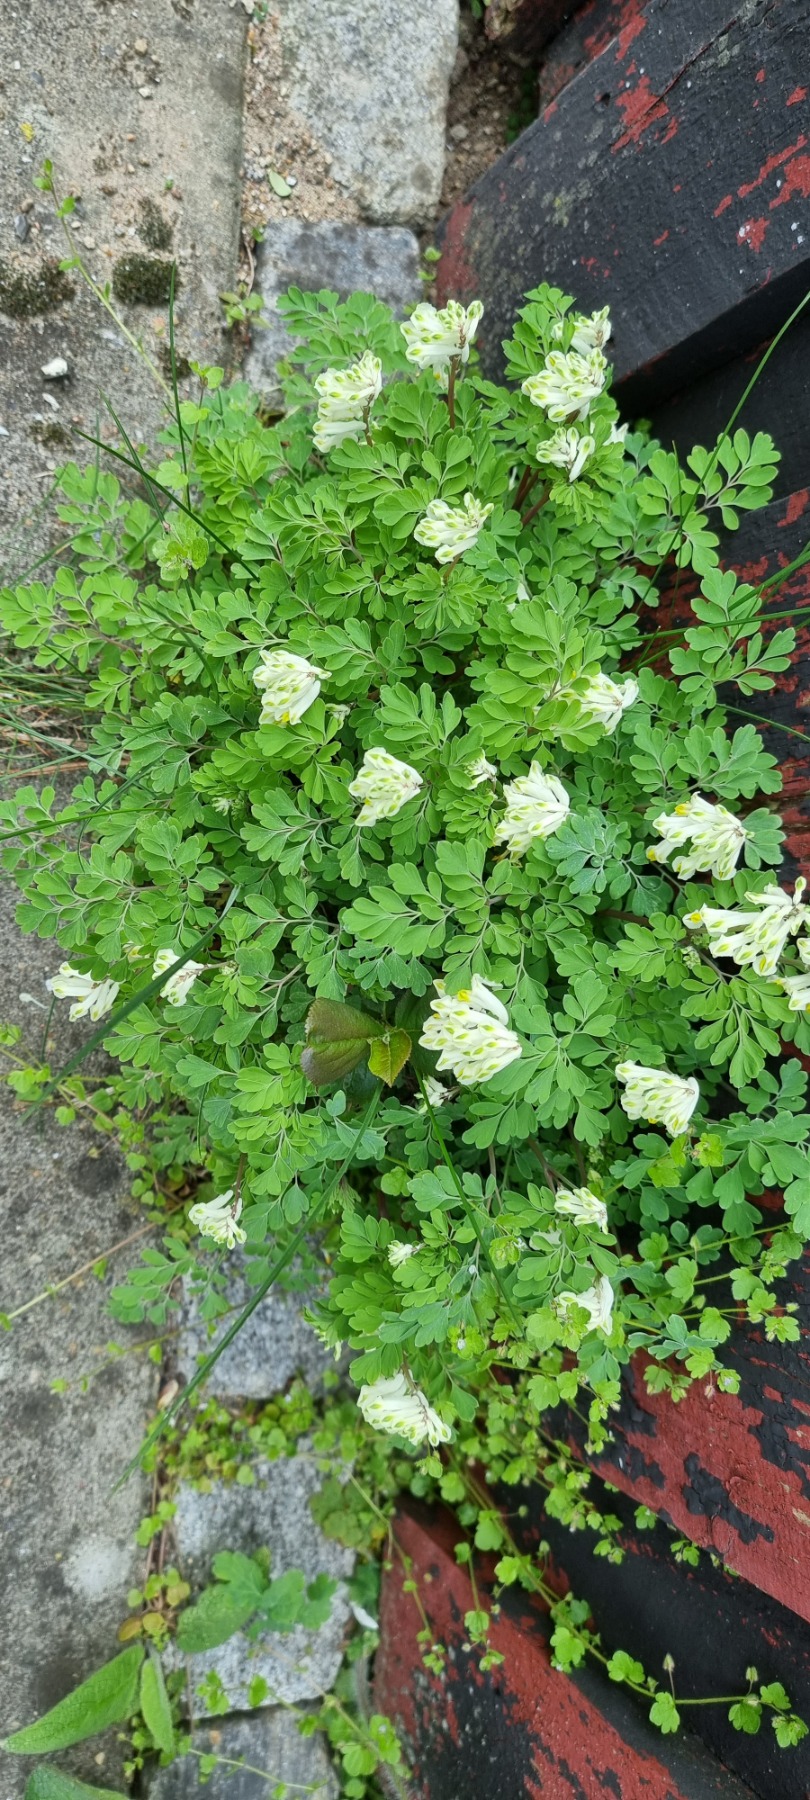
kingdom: Plantae
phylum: Tracheophyta
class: Magnoliopsida
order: Ranunculales
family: Papaveraceae
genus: Pseudofumaria
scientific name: Pseudofumaria alba
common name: Hvidgul lærkespore
